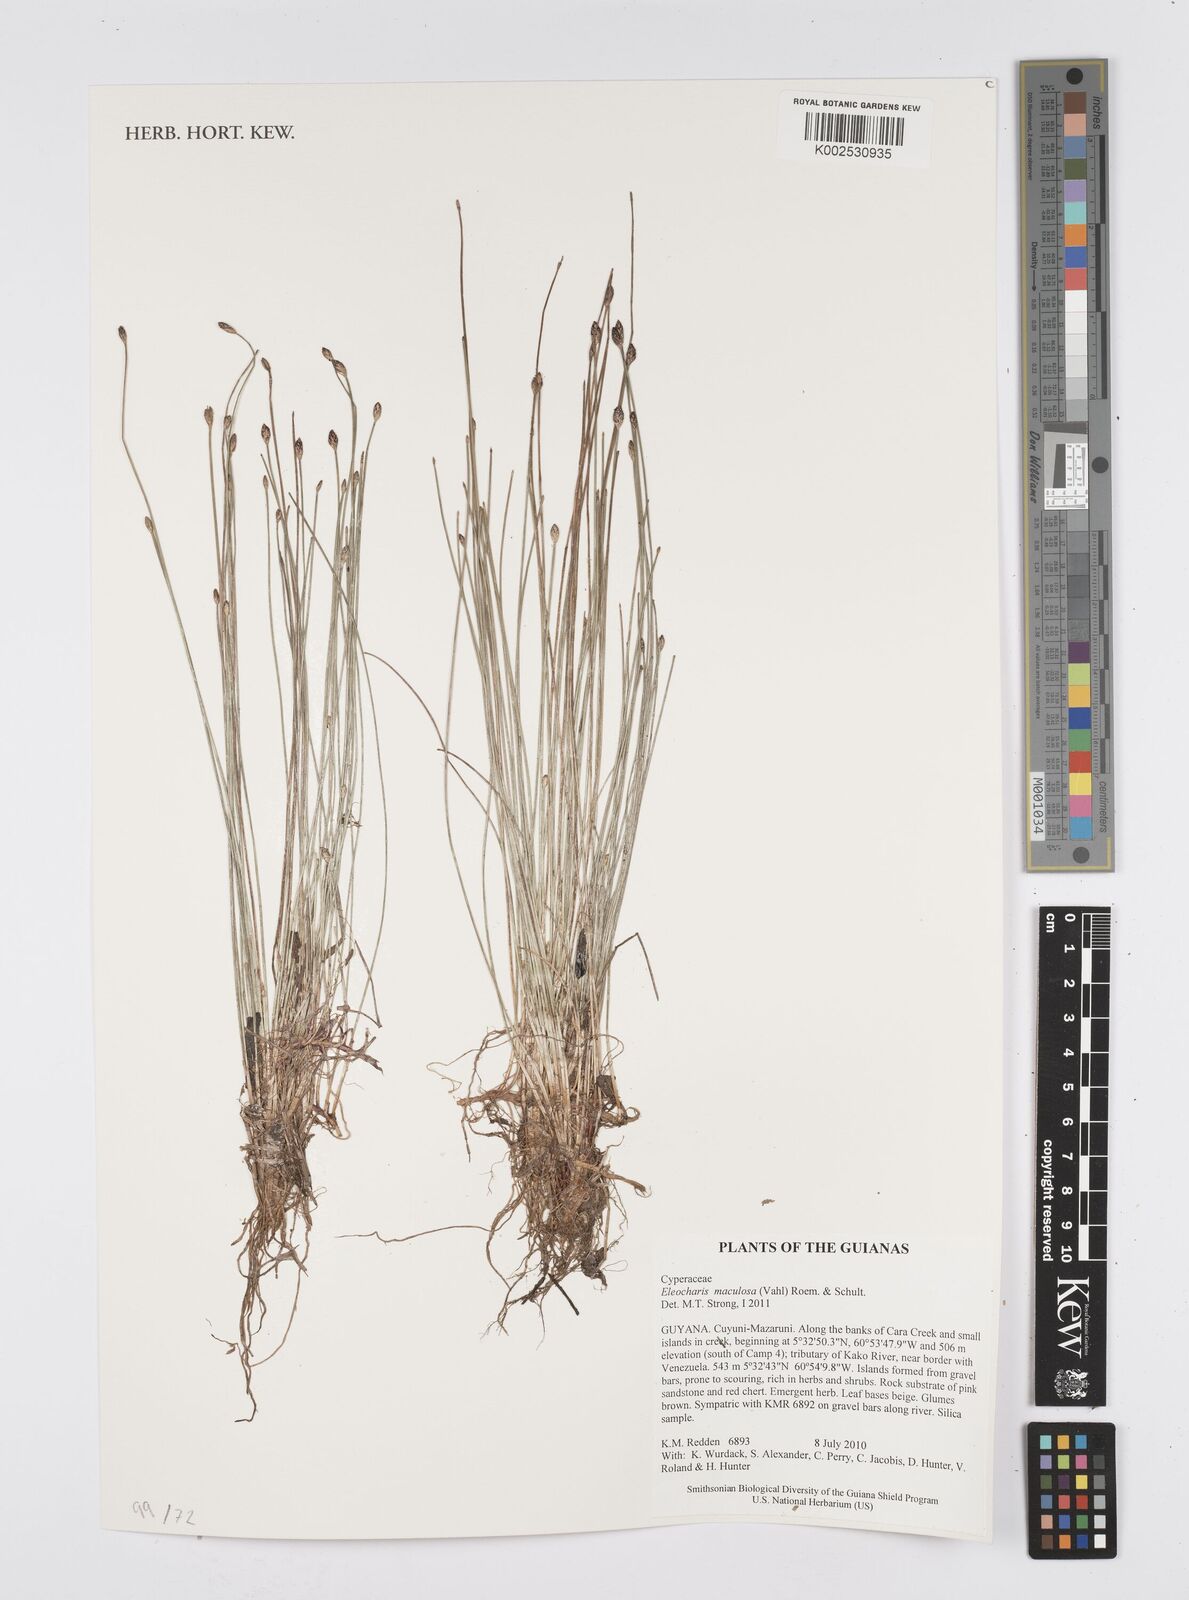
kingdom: Plantae
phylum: Tracheophyta
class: Liliopsida
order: Poales
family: Cyperaceae
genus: Eleocharis
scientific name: Eleocharis maculosa
